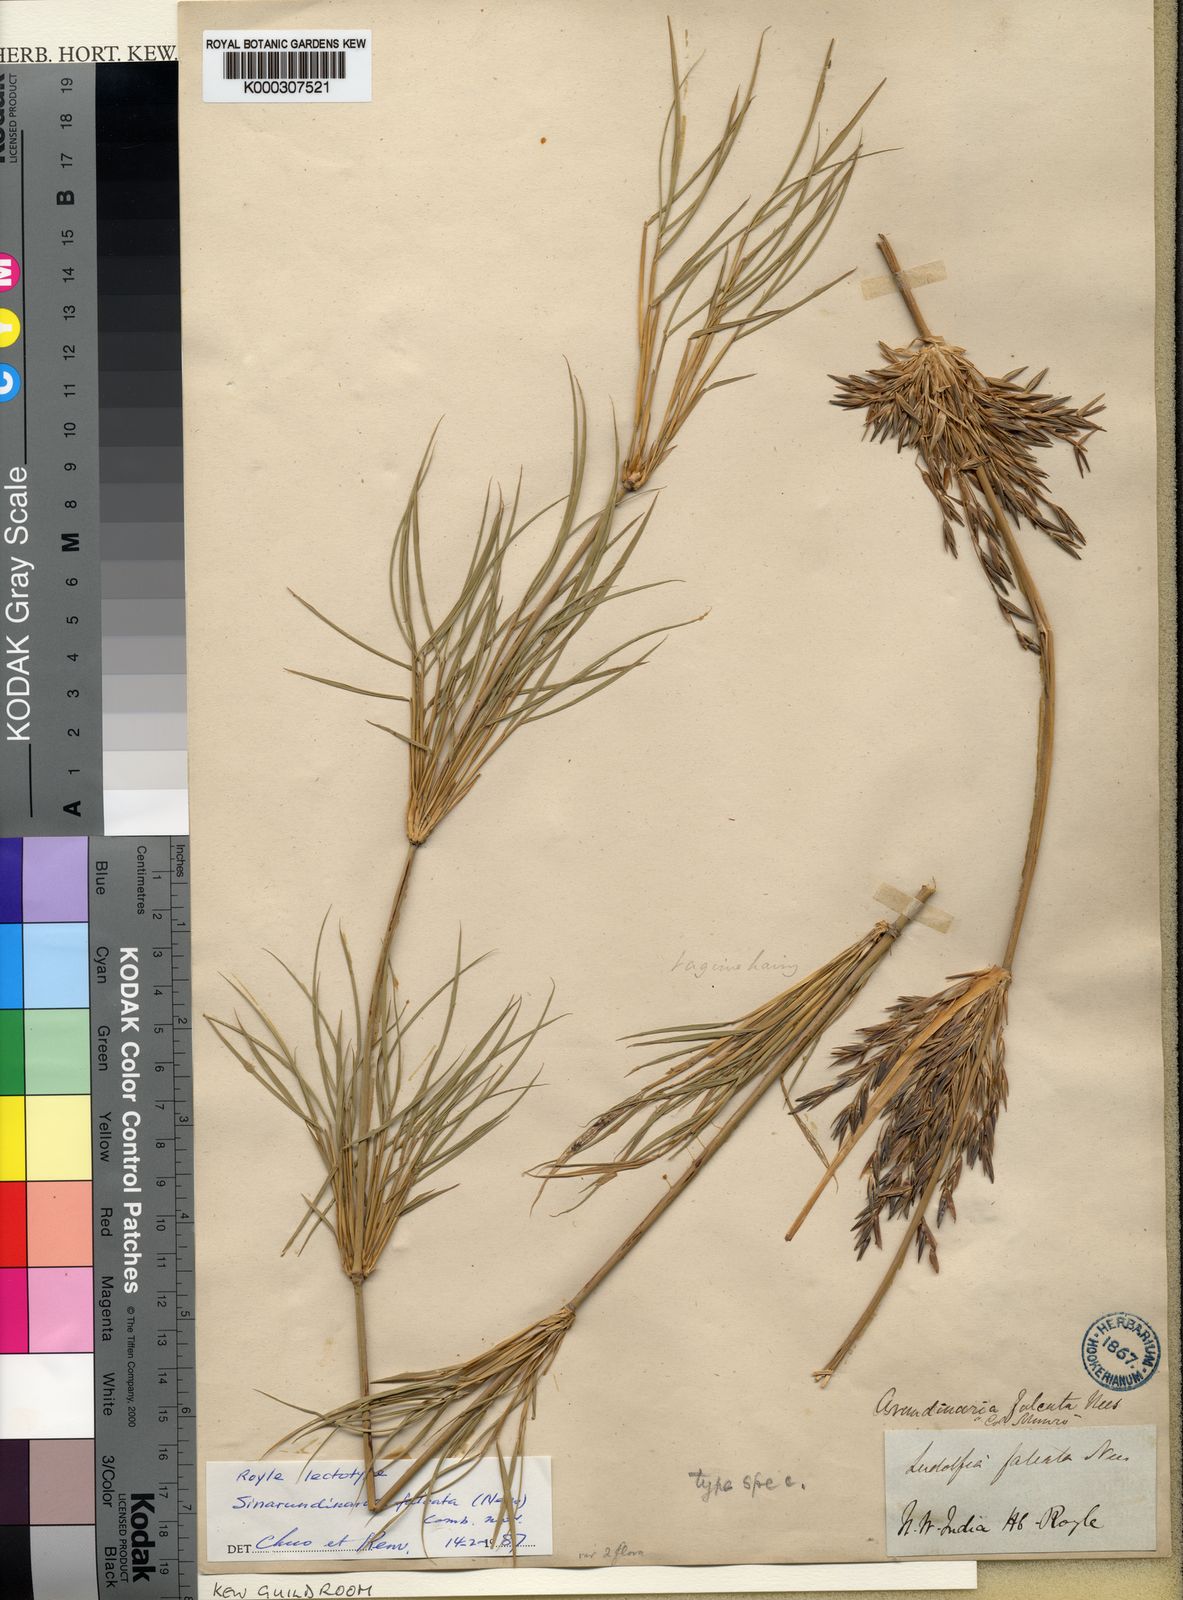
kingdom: Plantae
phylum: Tracheophyta
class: Liliopsida
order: Poales
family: Poaceae
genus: Drepanostachyum
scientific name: Drepanostachyum falcatum
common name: Himalayan bamboo
